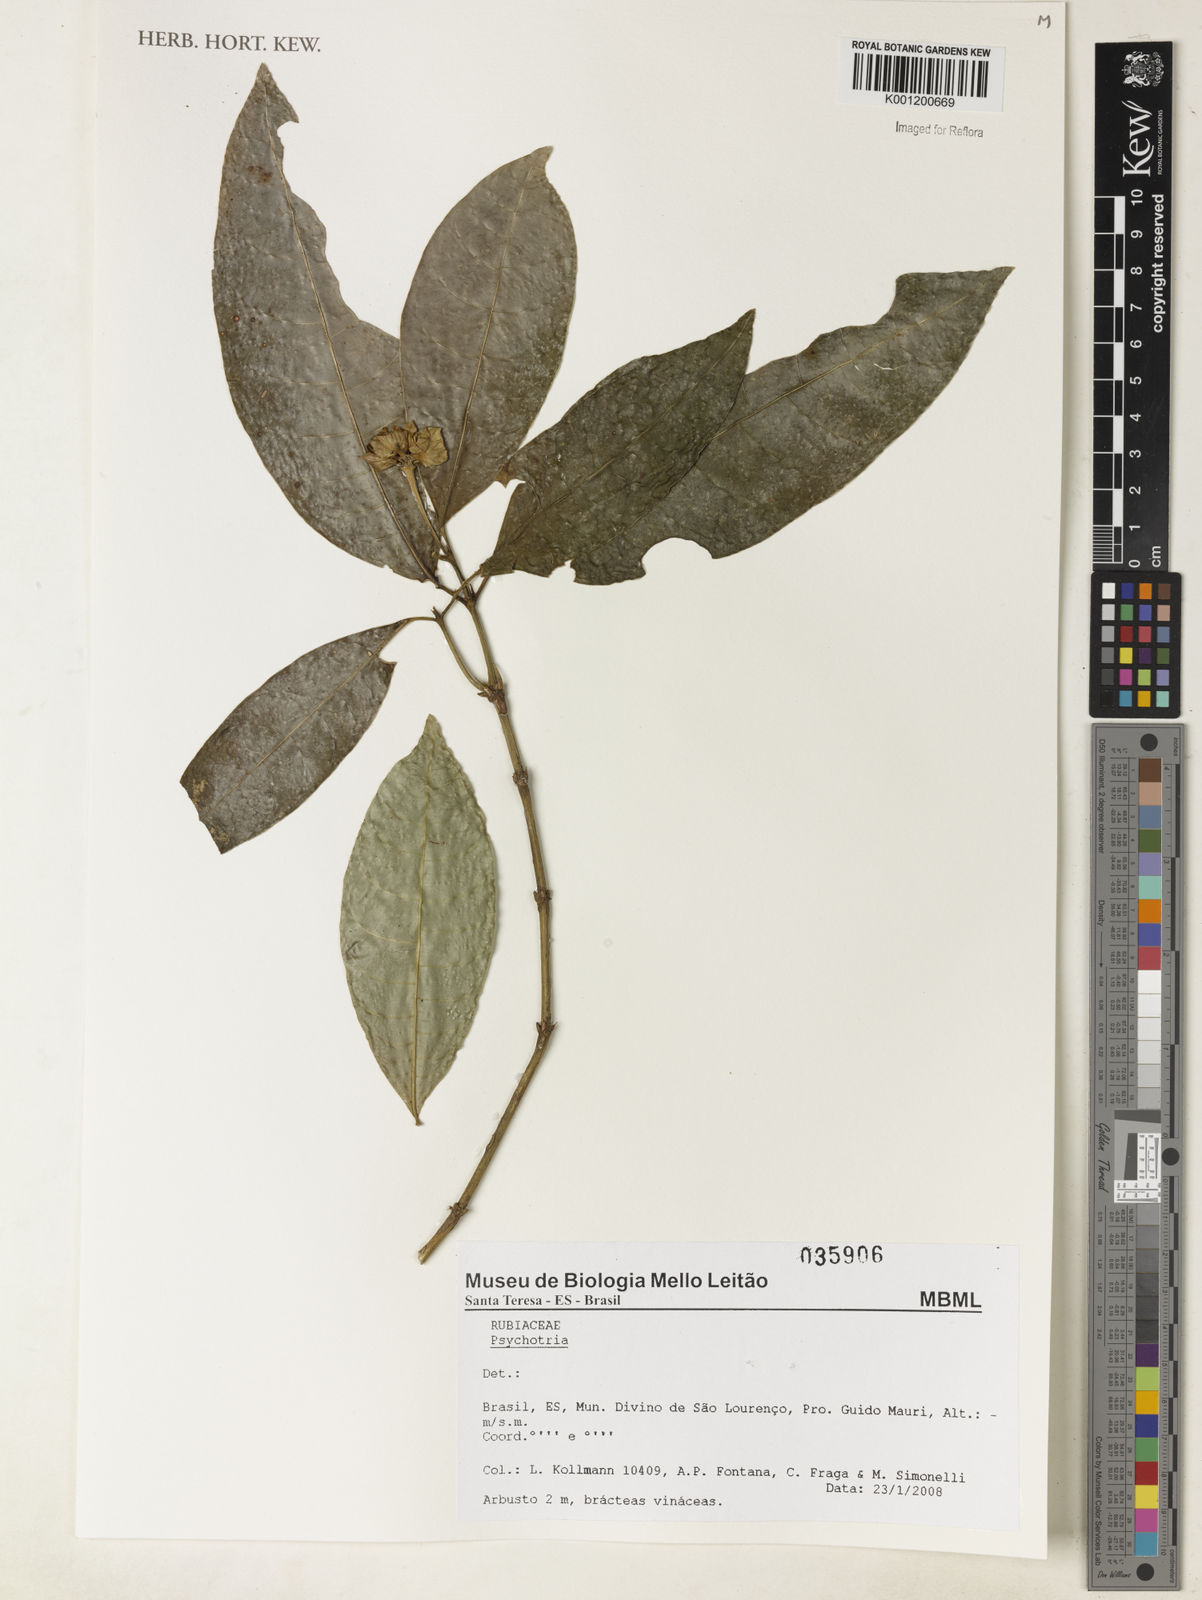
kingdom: Plantae
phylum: Tracheophyta
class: Magnoliopsida
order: Gentianales
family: Rubiaceae
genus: Psychotria
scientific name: Psychotria
